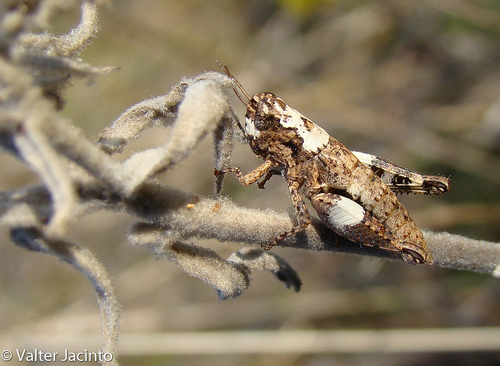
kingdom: Animalia
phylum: Arthropoda
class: Insecta
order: Orthoptera
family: Acrididae
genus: Pezotettix
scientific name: Pezotettix giornae
